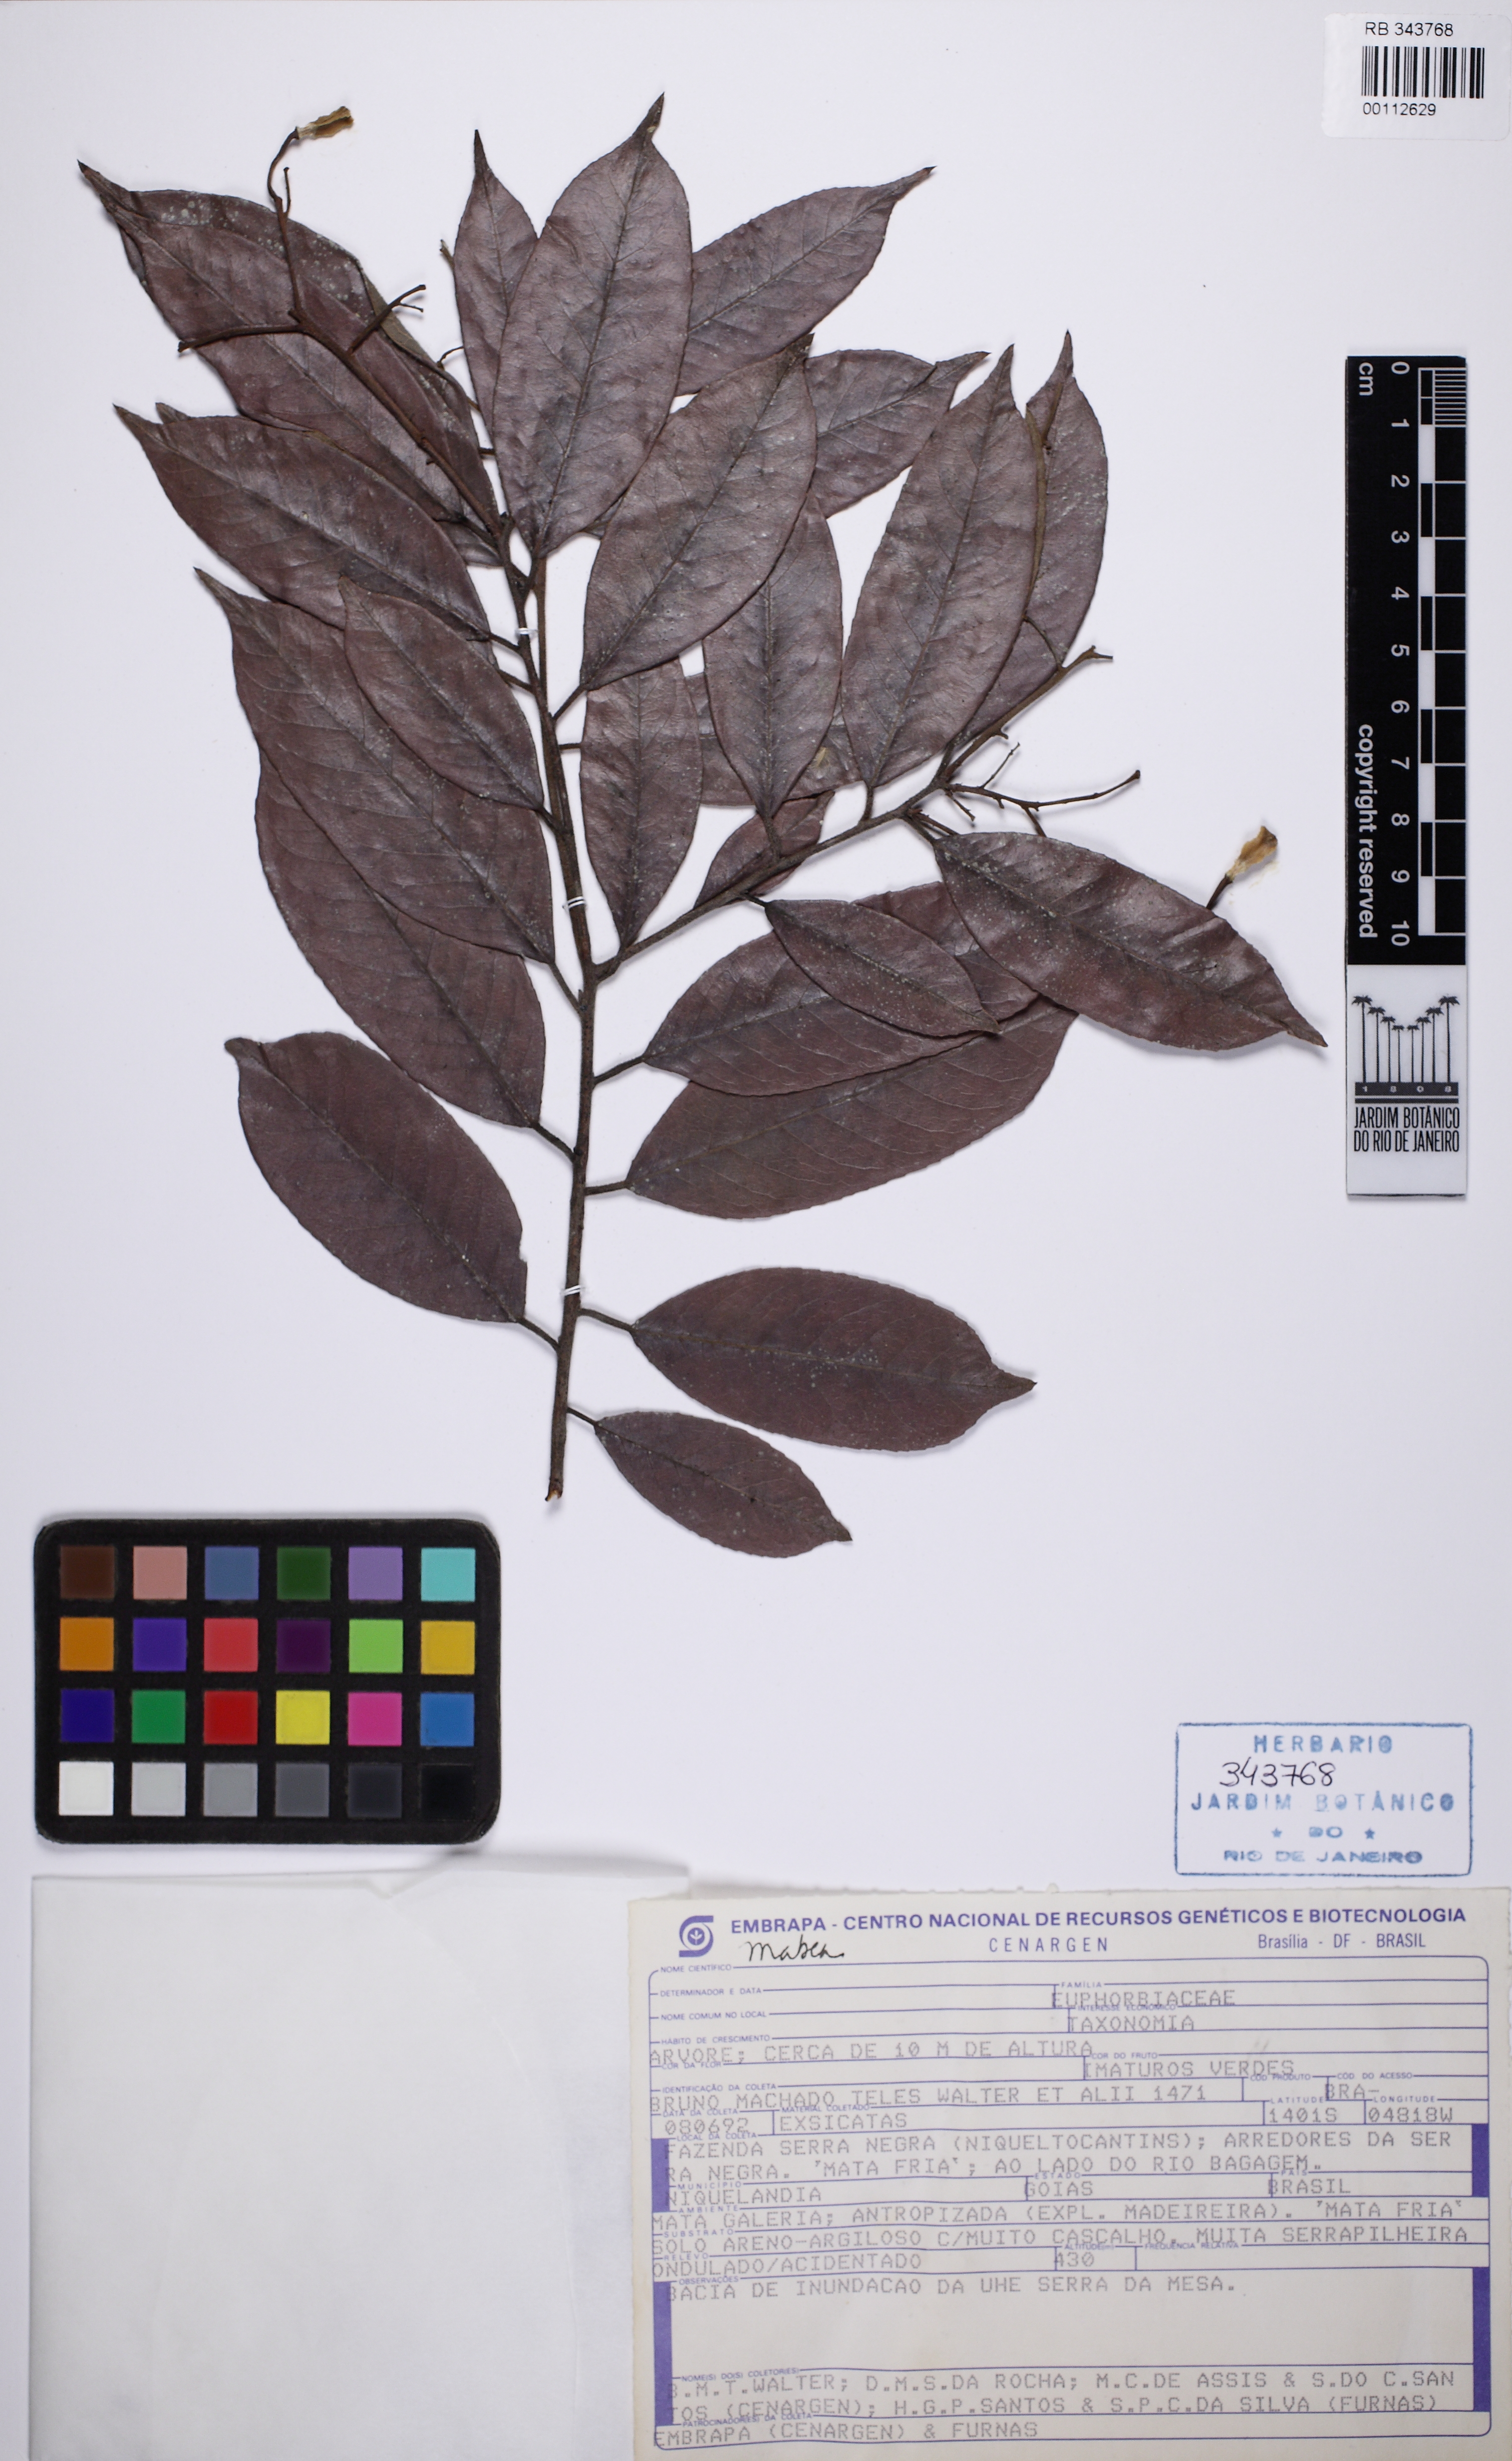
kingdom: Plantae
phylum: Tracheophyta
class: Magnoliopsida
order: Malpighiales
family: Euphorbiaceae
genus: Mabea
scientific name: Mabea
